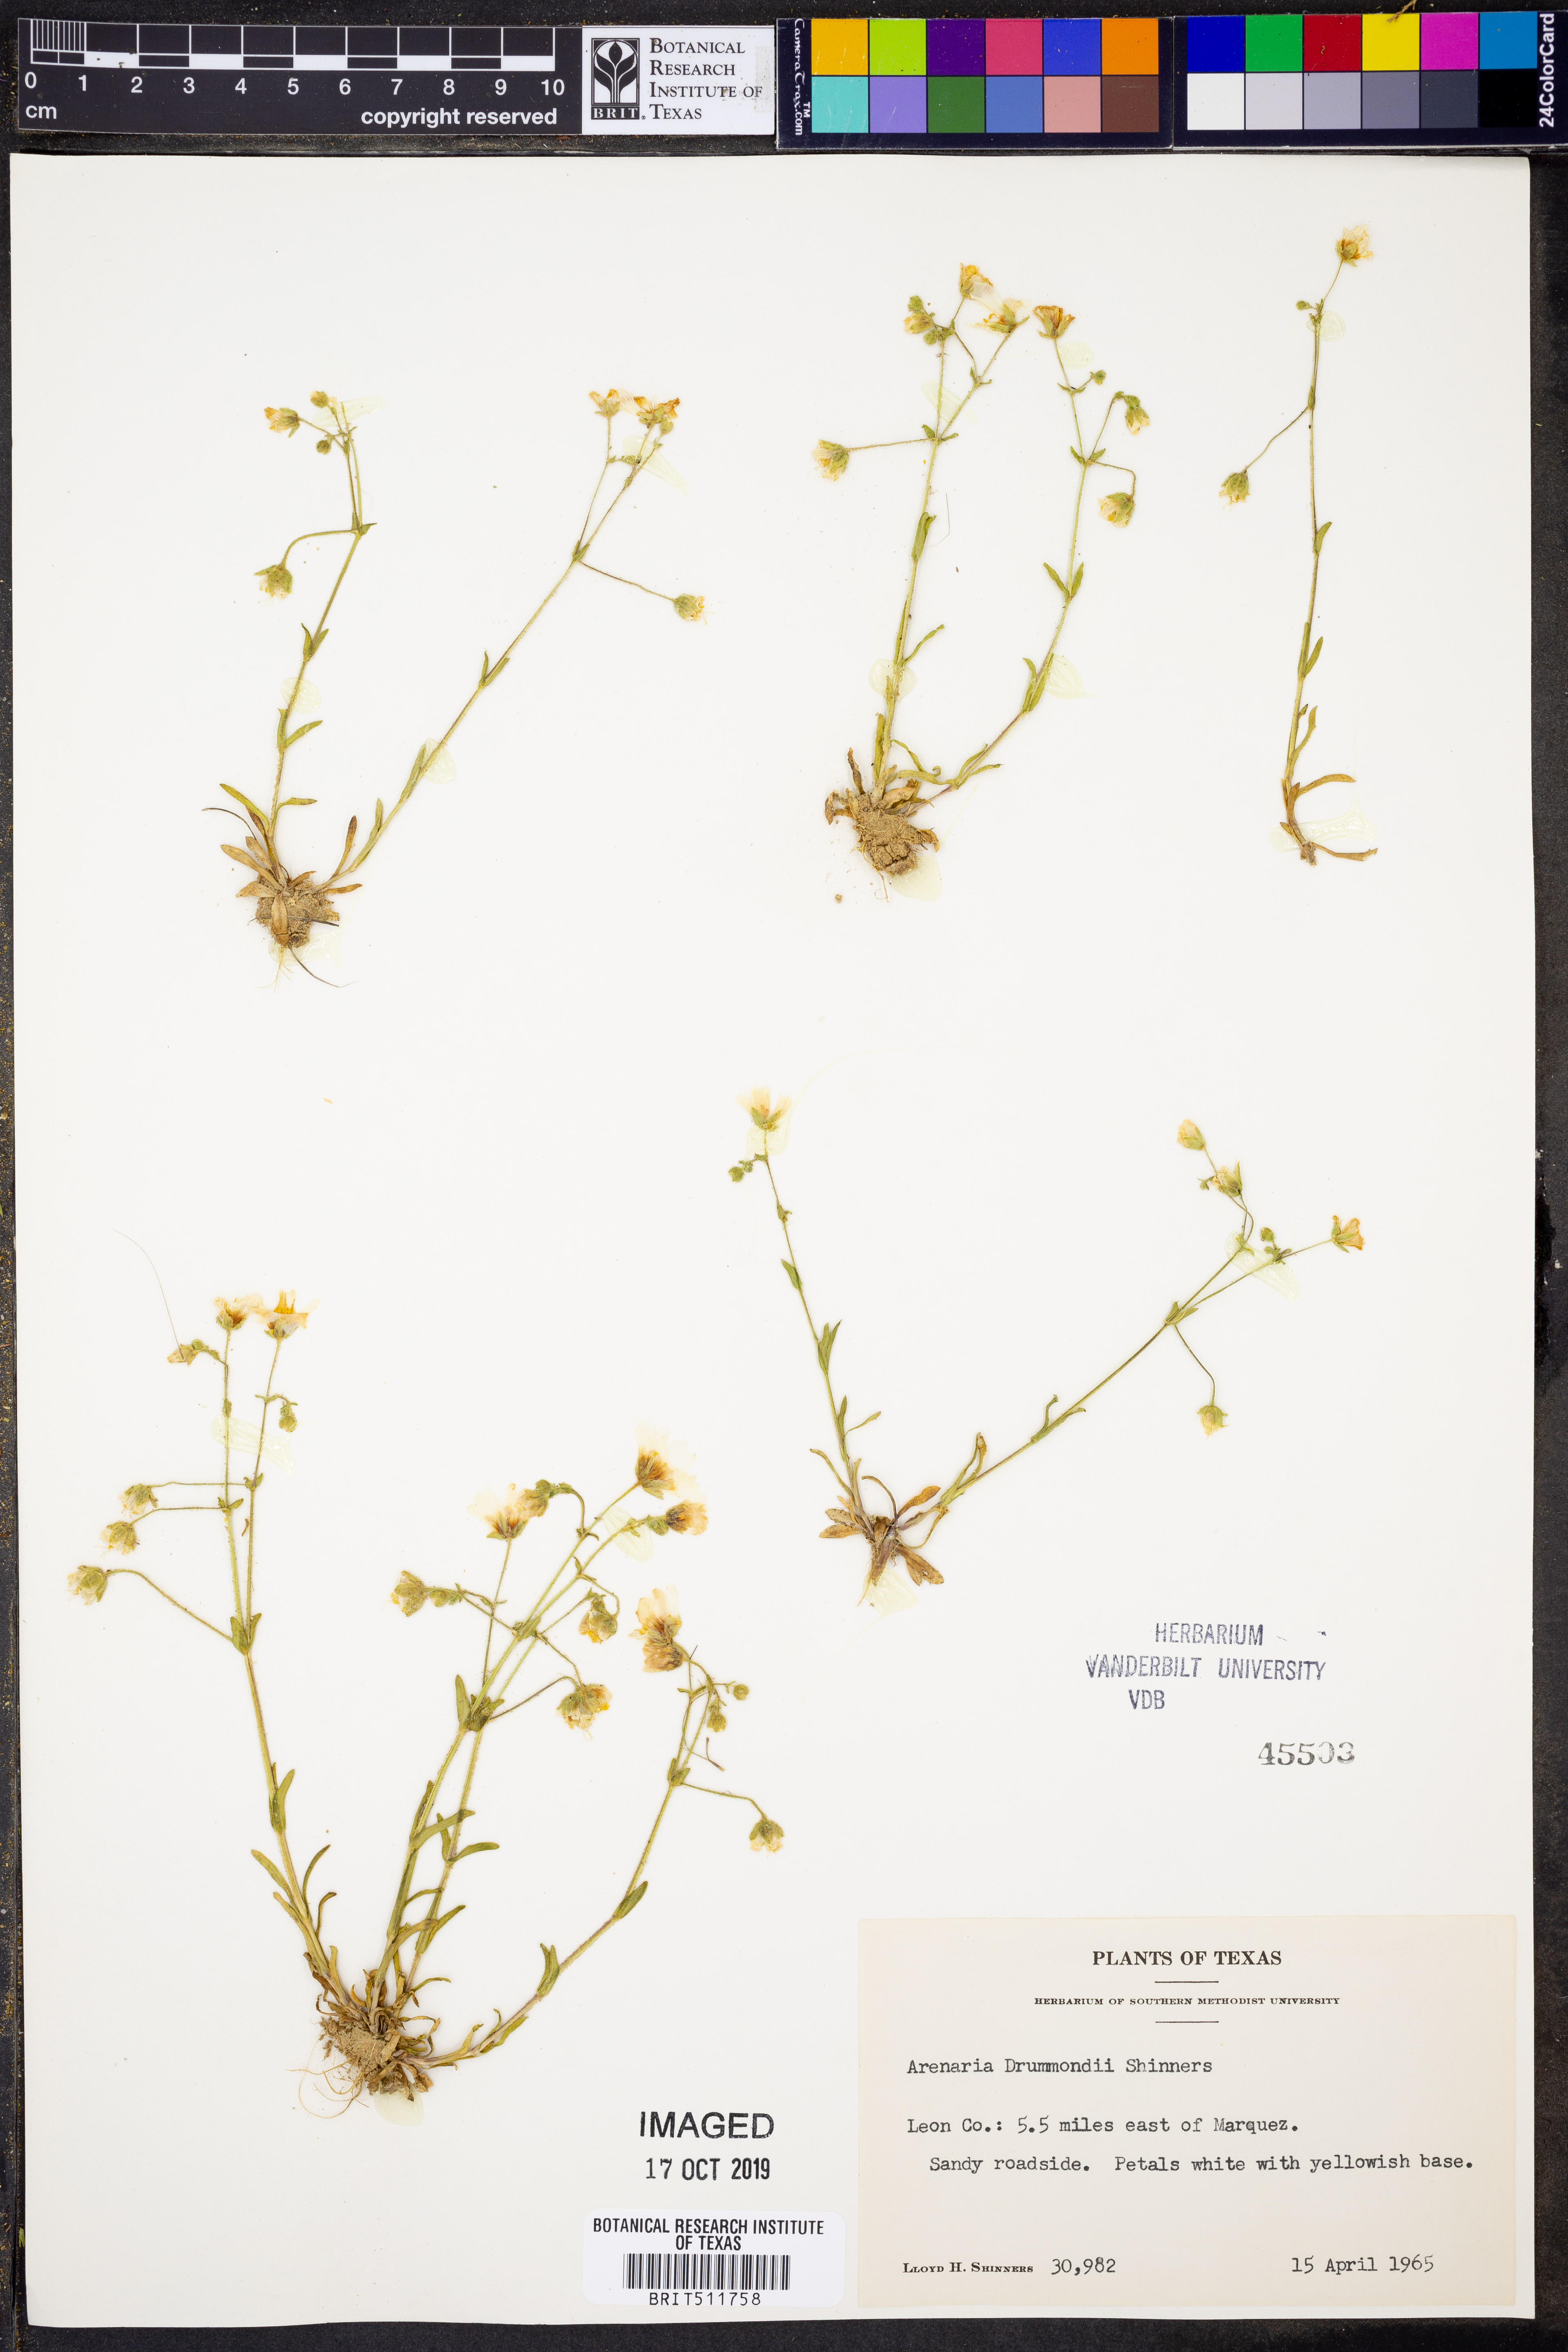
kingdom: Plantae
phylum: Tracheophyta
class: Magnoliopsida
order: Caryophyllales
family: Caryophyllaceae
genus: Geocarpon
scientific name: Geocarpon nuttallii
